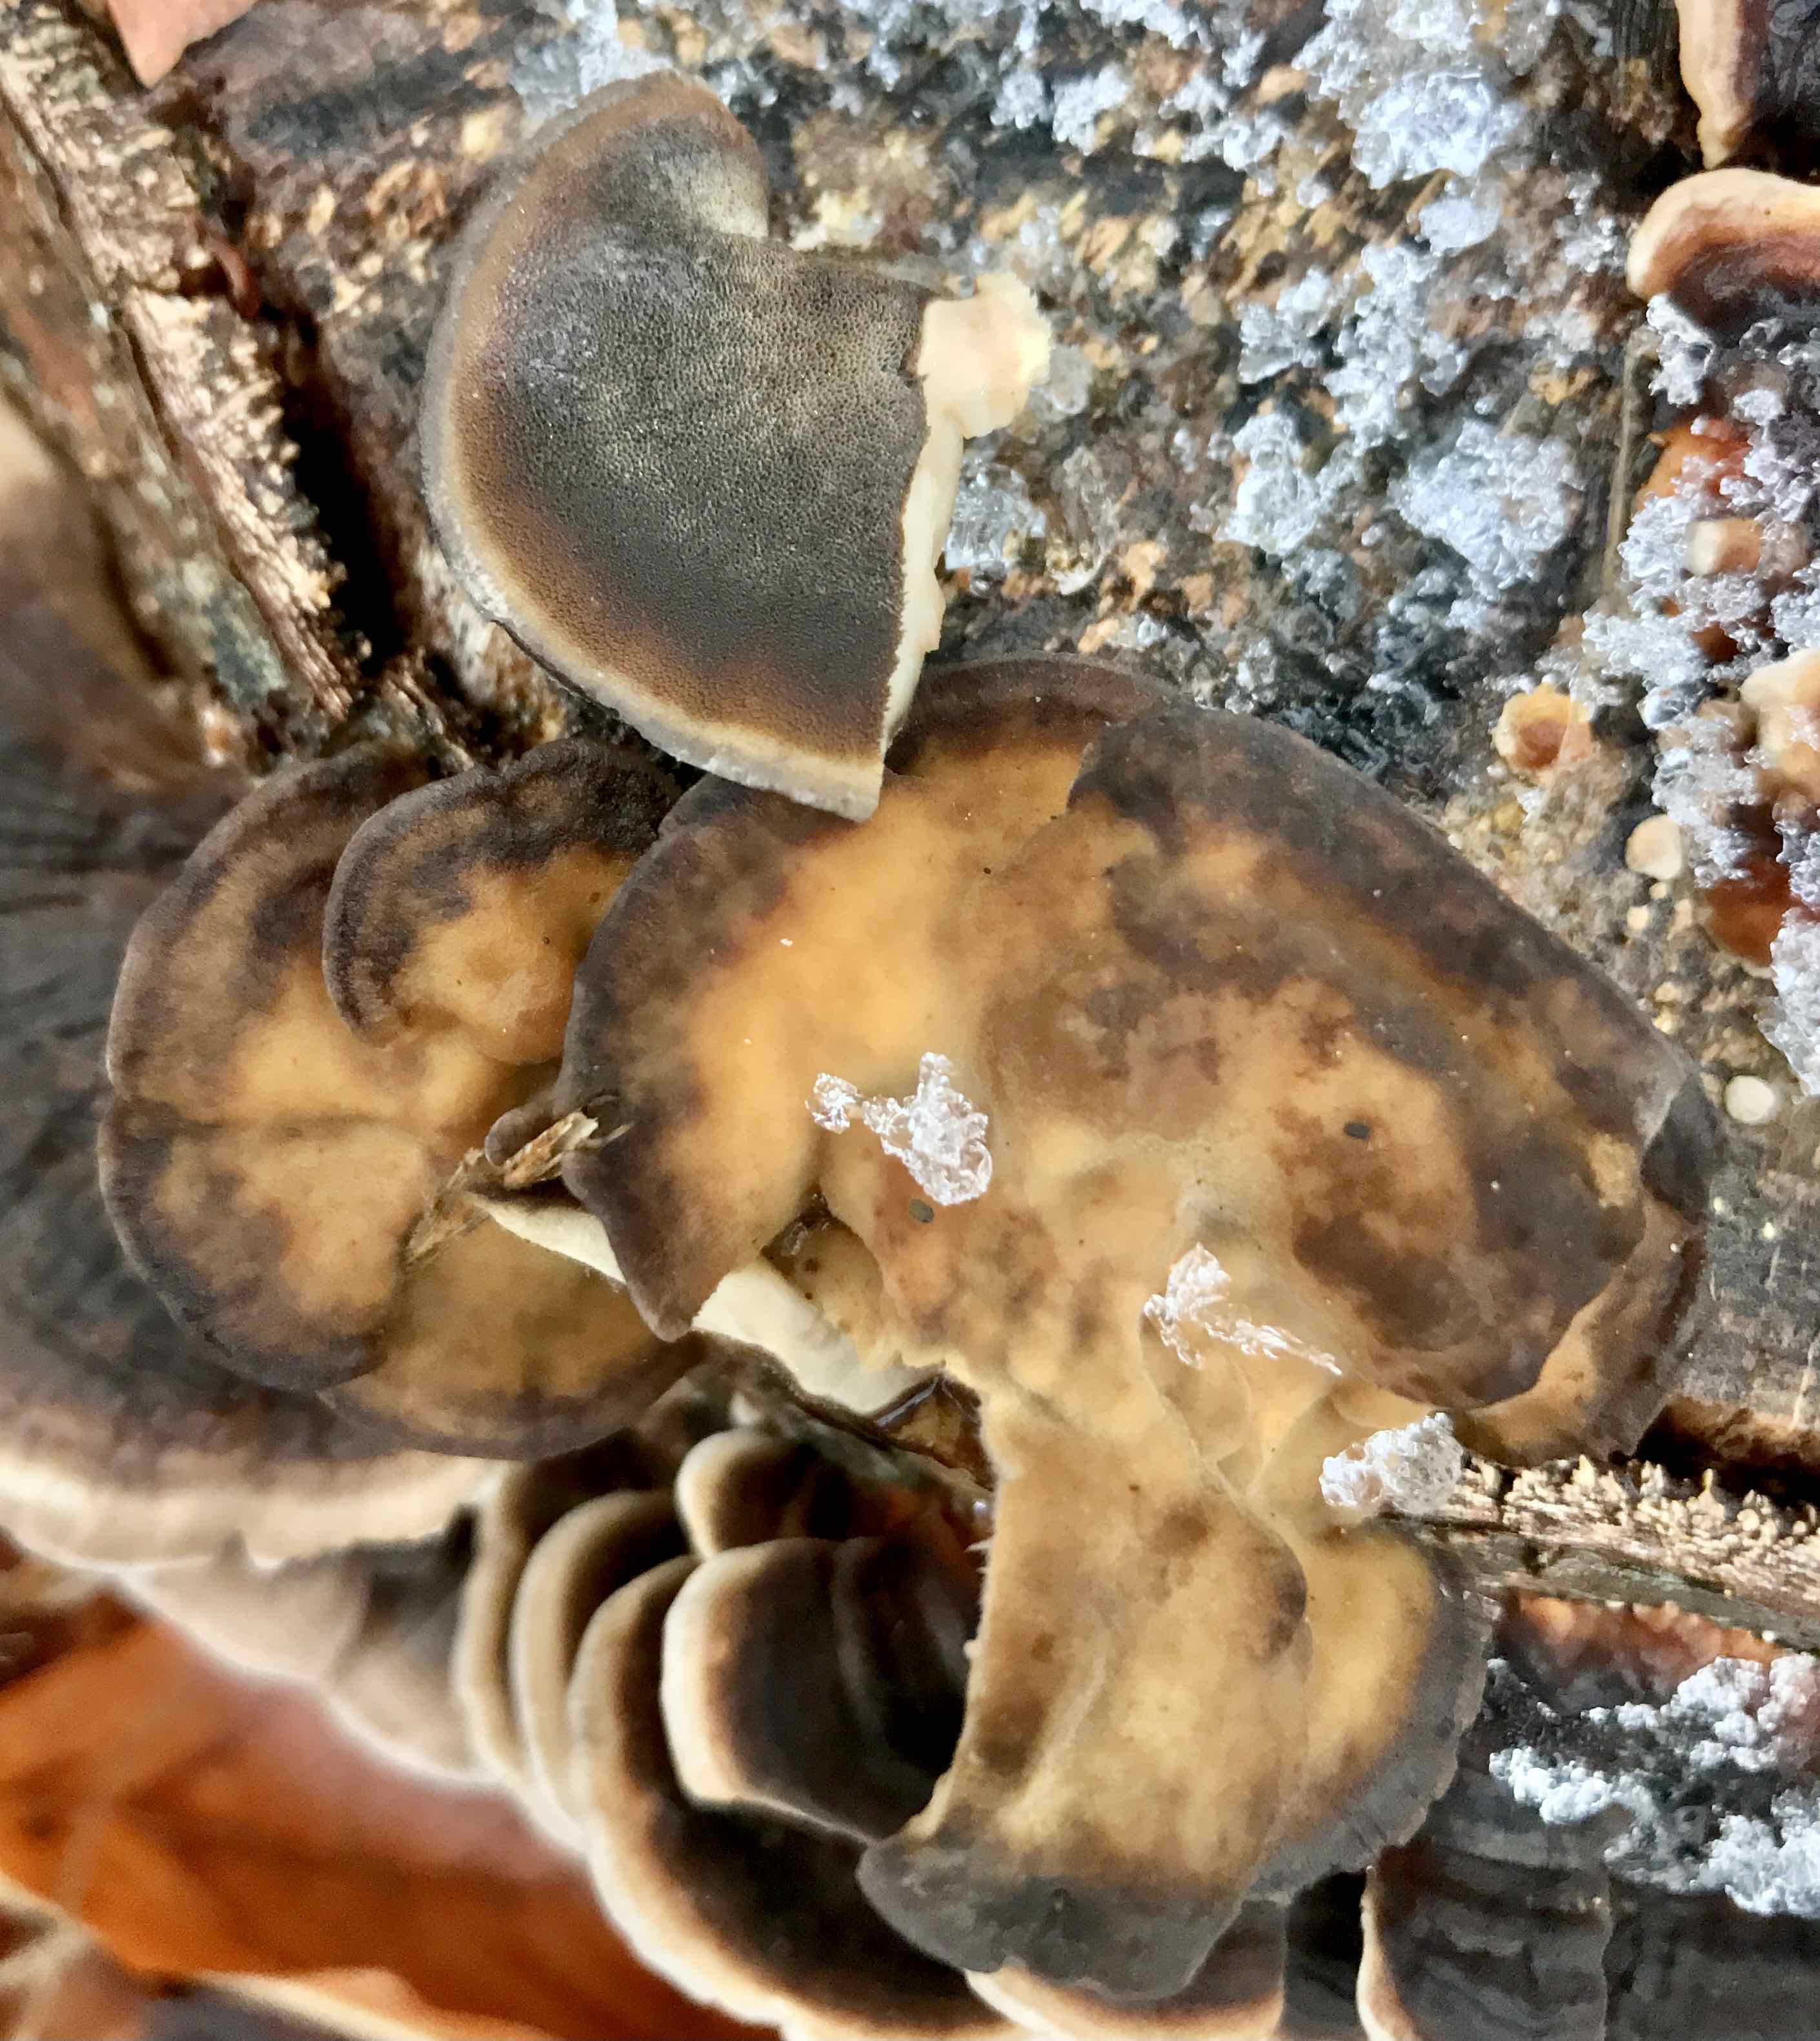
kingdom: Fungi
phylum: Basidiomycota
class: Agaricomycetes
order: Polyporales
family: Phanerochaetaceae
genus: Bjerkandera
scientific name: Bjerkandera adusta
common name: sveden sodporesvamp
